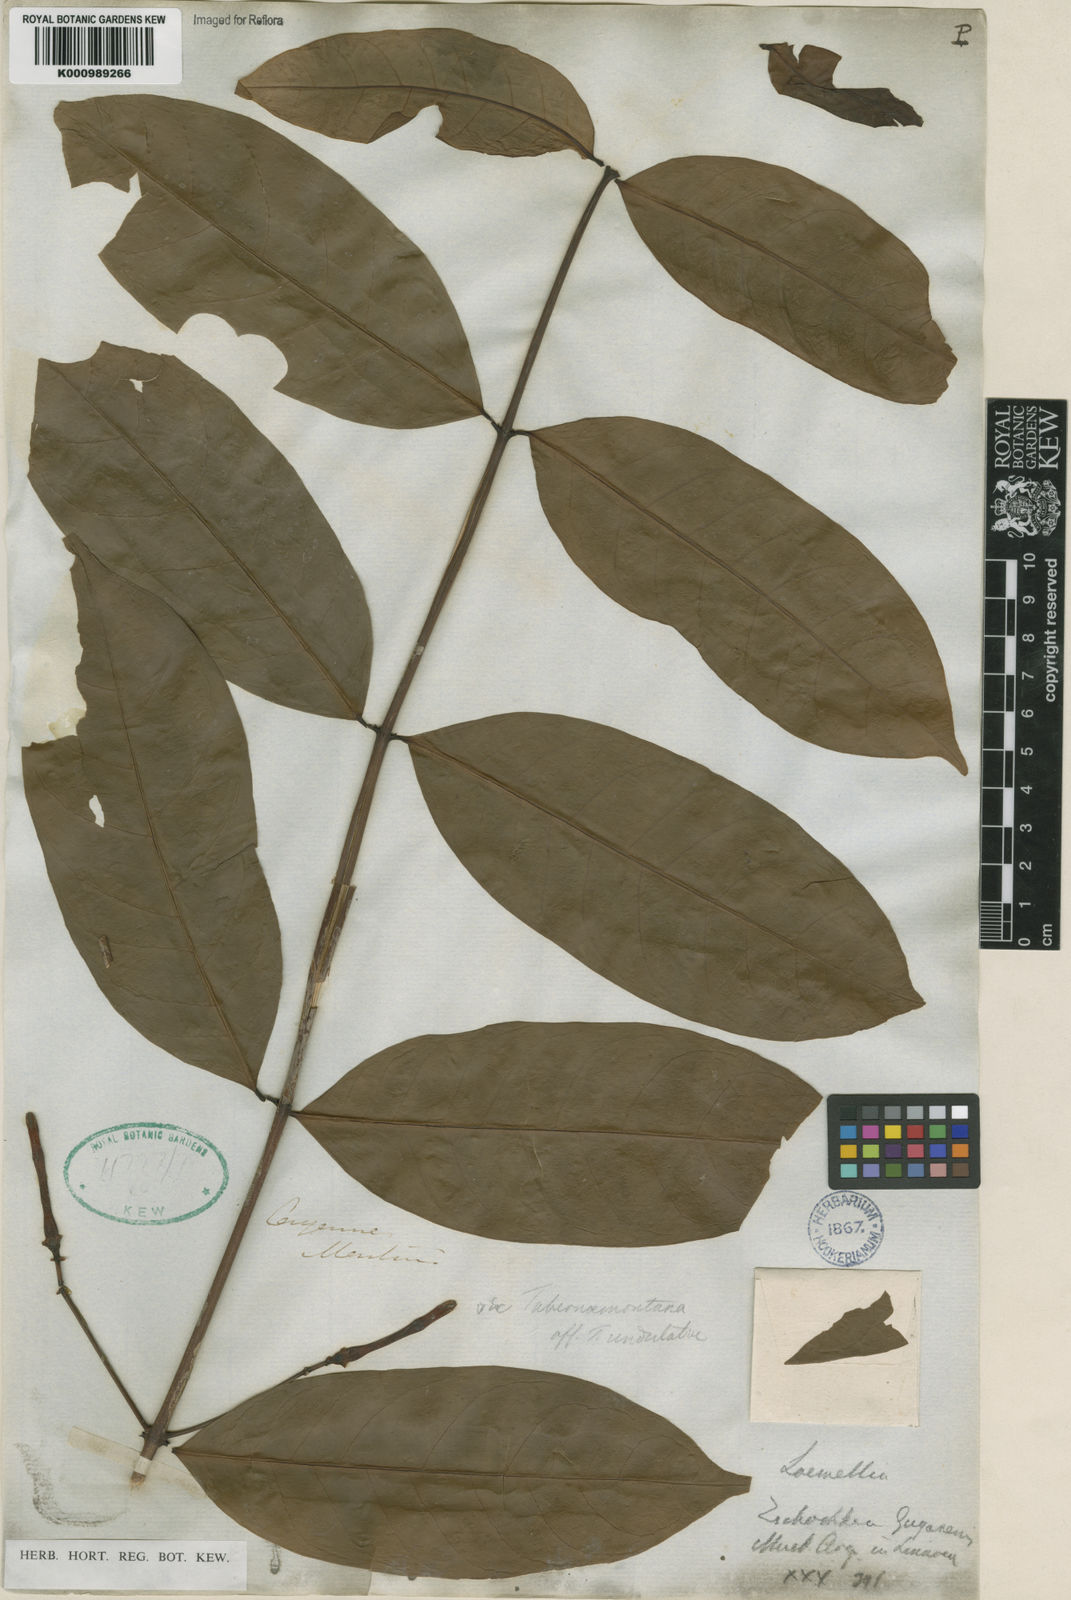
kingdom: Plantae
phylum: Tracheophyta
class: Magnoliopsida
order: Gentianales
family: Apocynaceae
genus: Lacmellea
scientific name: Lacmellea
